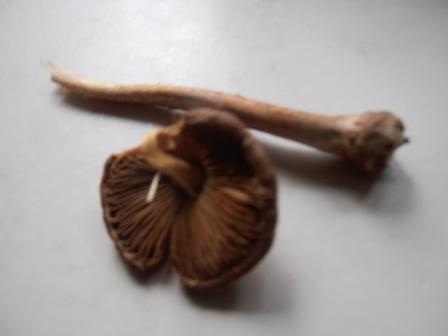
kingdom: Fungi
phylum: Basidiomycota
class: Agaricomycetes
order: Agaricales
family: Inocybaceae
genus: Inocybe
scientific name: Inocybe napipes
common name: roeknoldet trævlhat
